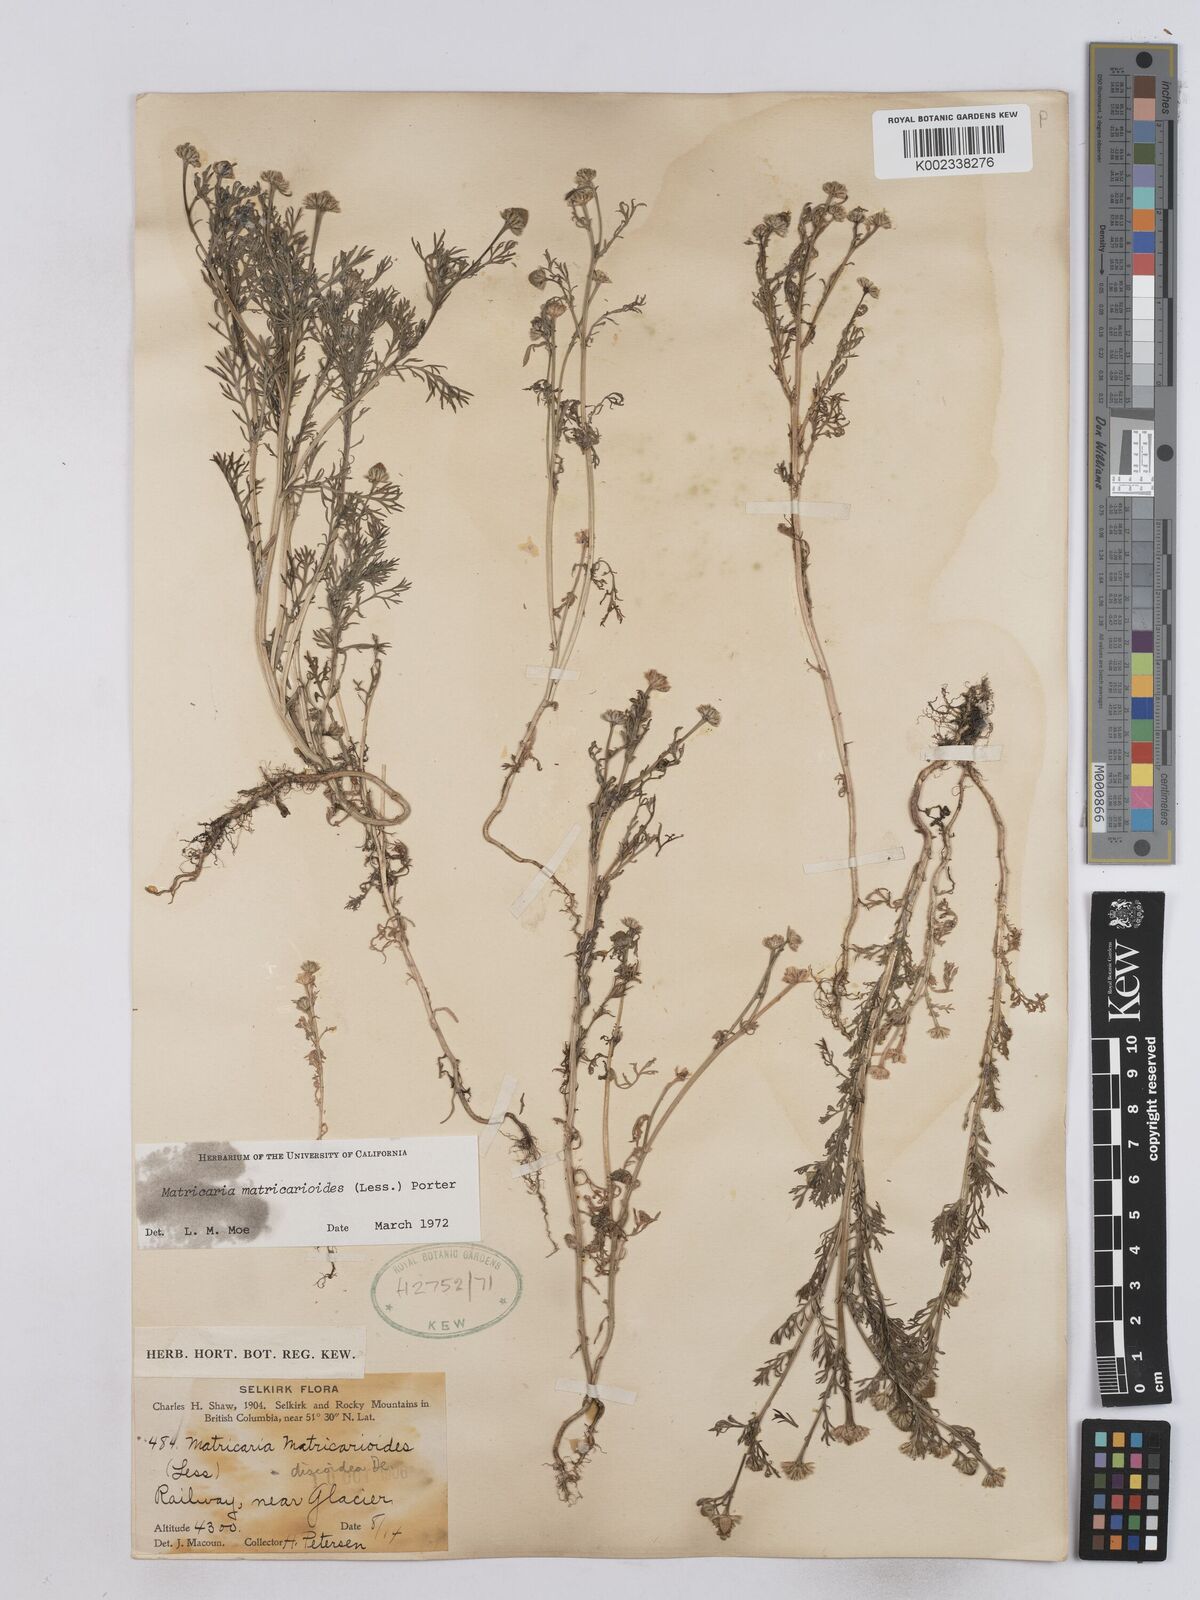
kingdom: Plantae
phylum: Tracheophyta
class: Magnoliopsida
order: Asterales
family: Asteraceae
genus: Matricaria
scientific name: Matricaria discoidea
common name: Disc mayweed
